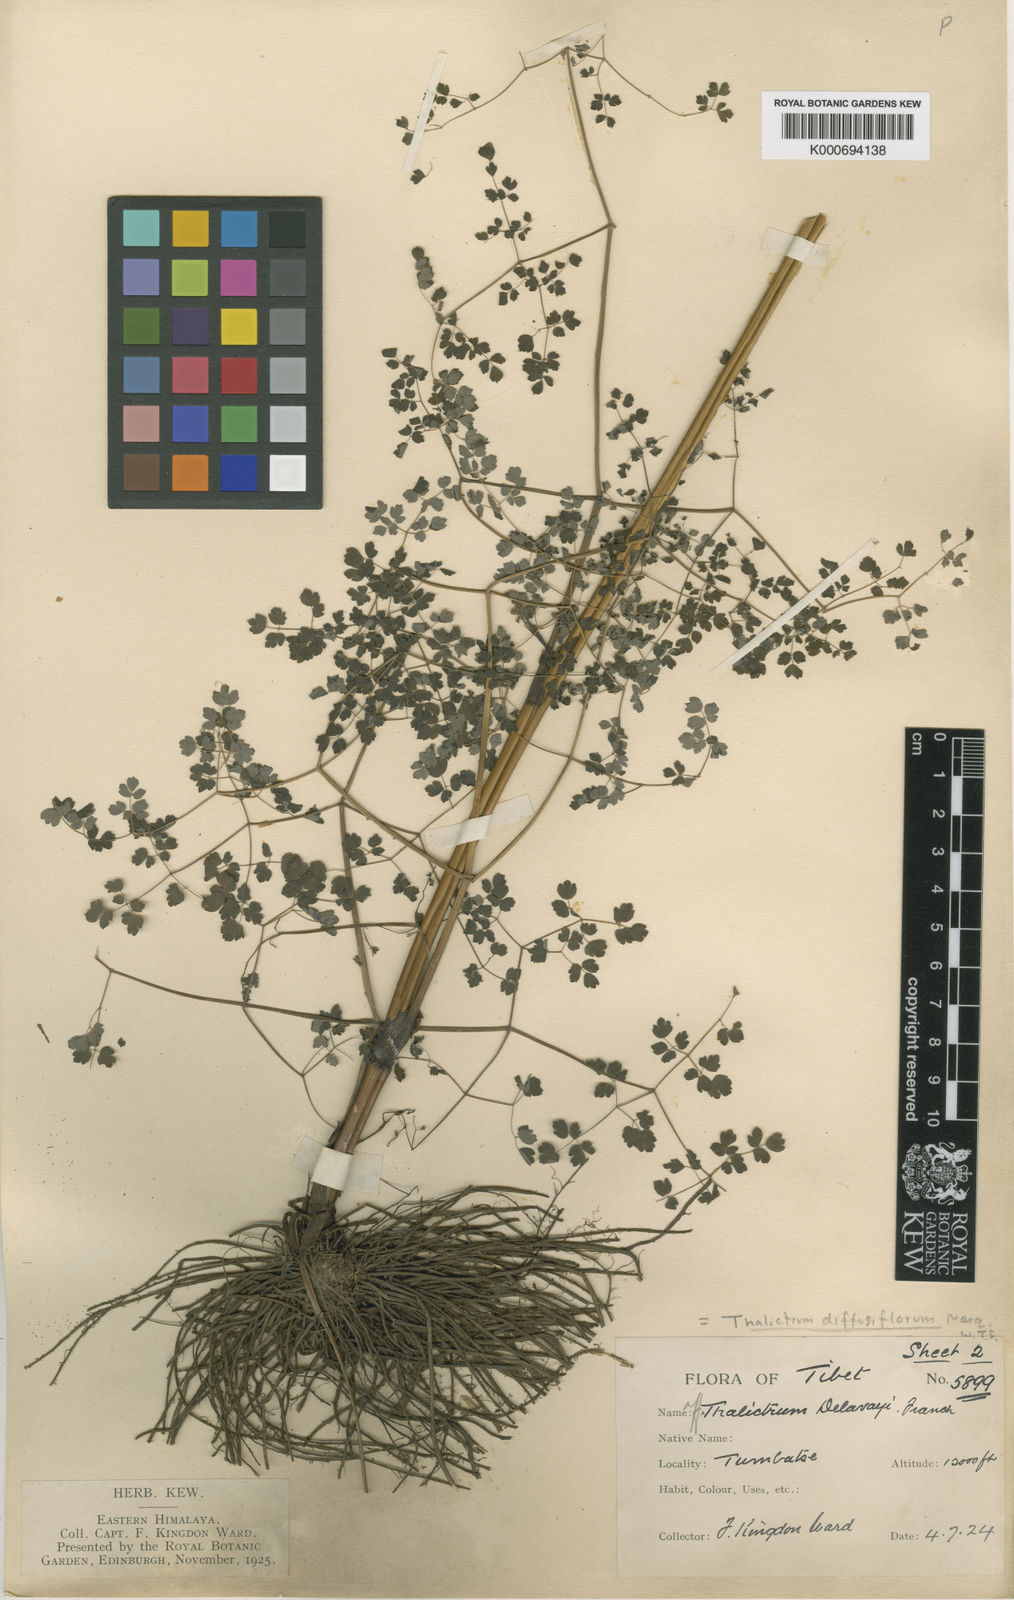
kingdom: Plantae
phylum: Tracheophyta
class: Magnoliopsida
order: Ranunculales
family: Ranunculaceae
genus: Thalictrum
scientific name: Thalictrum diffusiflorum
